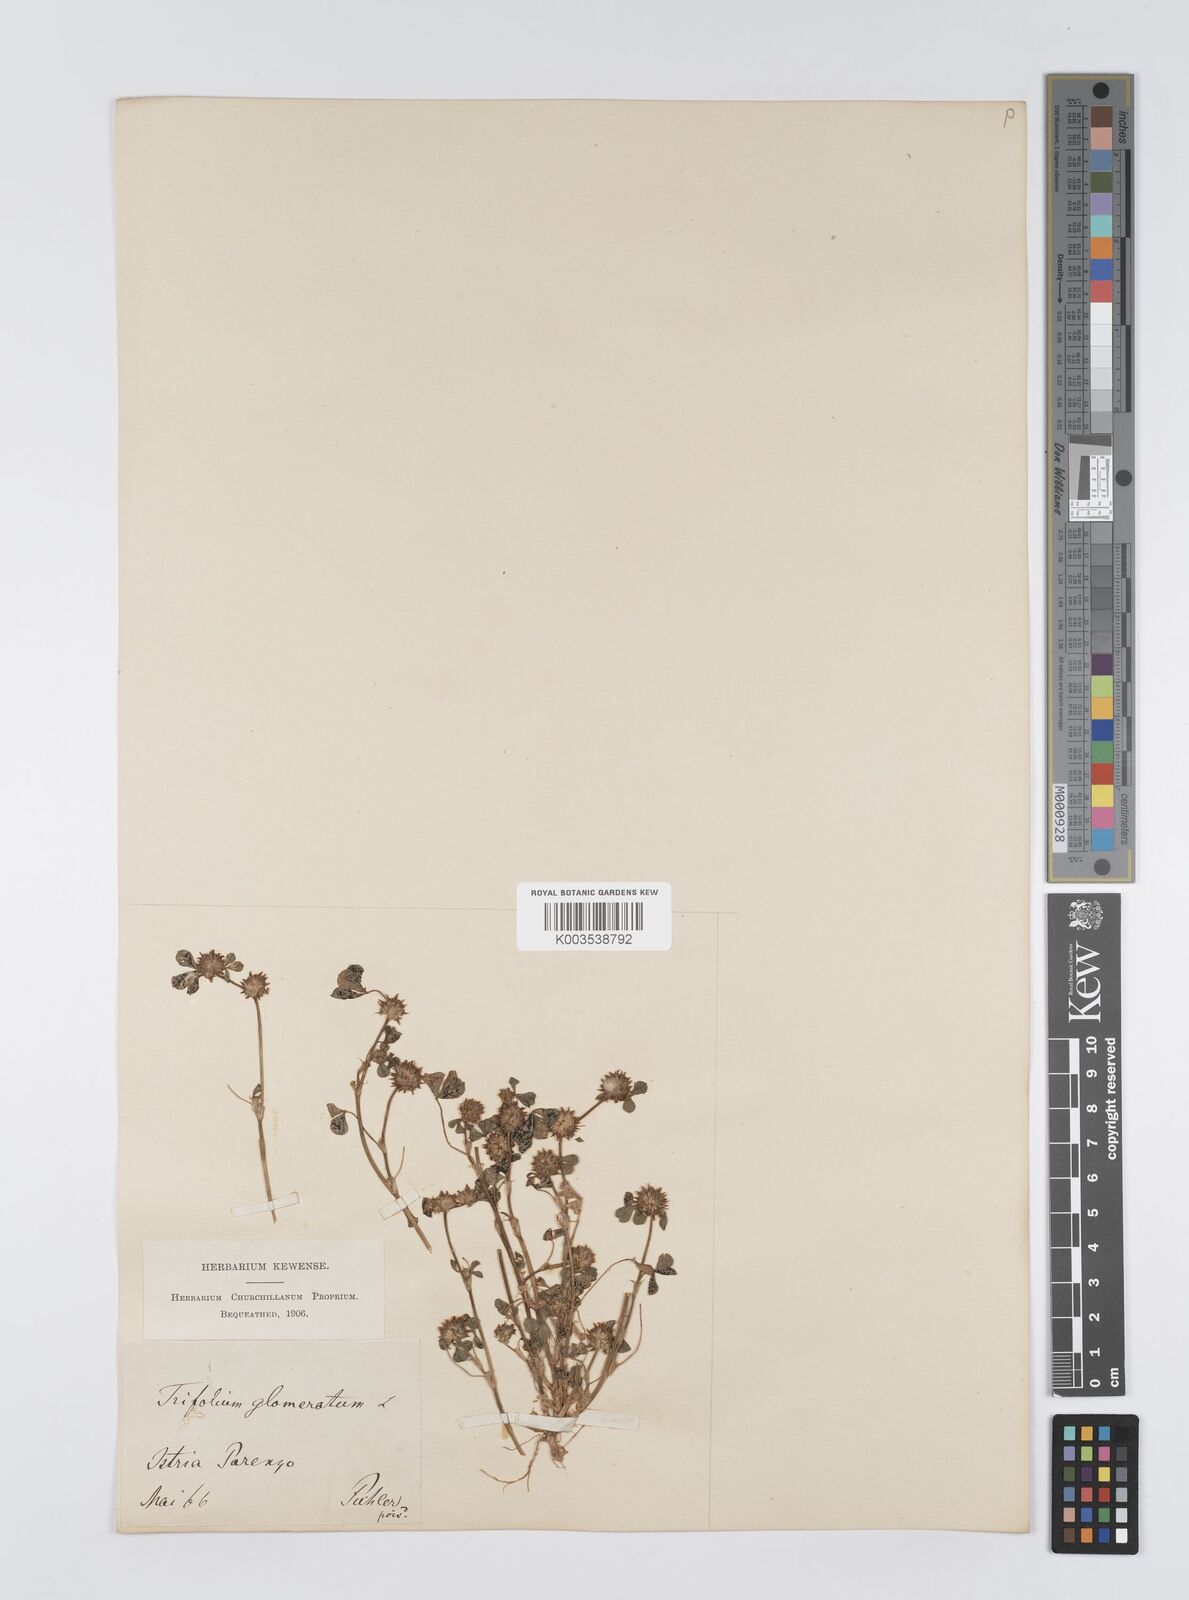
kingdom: Plantae
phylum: Tracheophyta
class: Magnoliopsida
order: Fabales
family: Fabaceae
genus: Trifolium
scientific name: Trifolium glomeratum
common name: Clustered clover
